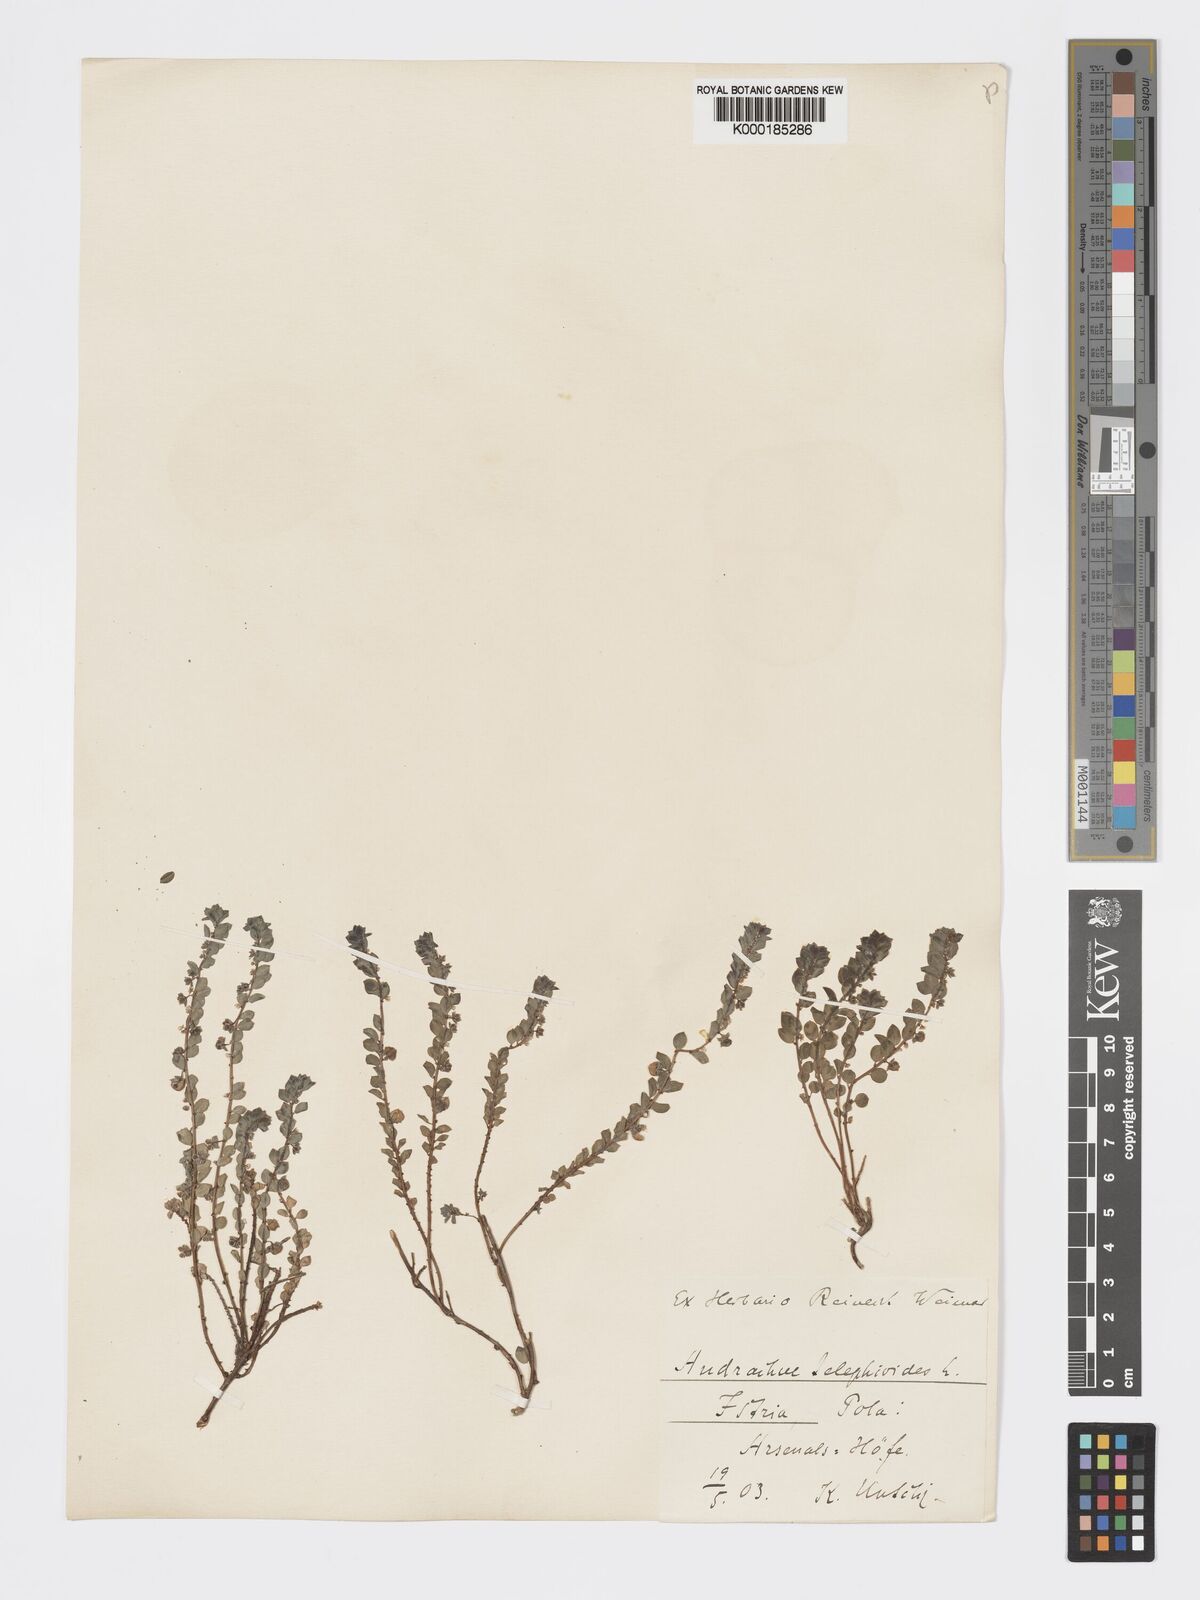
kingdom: Plantae
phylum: Tracheophyta
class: Magnoliopsida
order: Malpighiales
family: Phyllanthaceae
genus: Andrachne
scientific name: Andrachne telephioides
